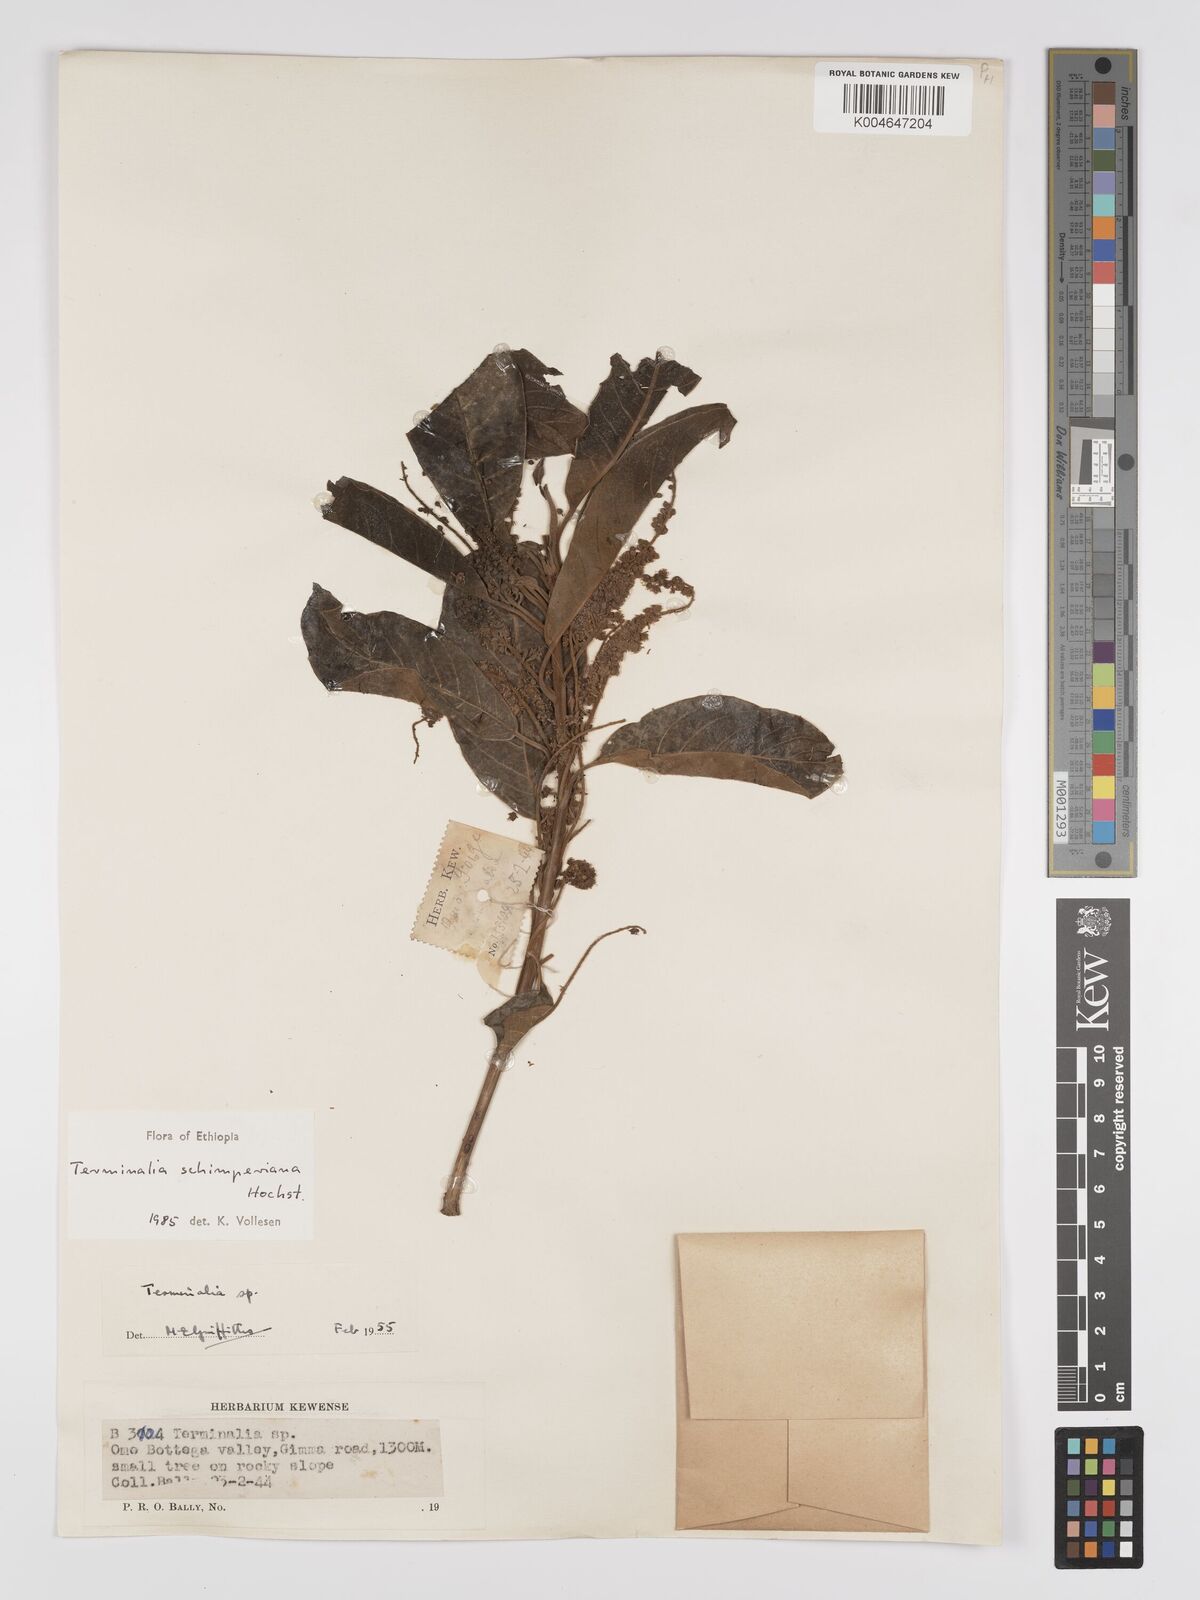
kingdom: Plantae
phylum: Tracheophyta
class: Magnoliopsida
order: Myrtales
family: Combretaceae
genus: Terminalia
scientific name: Terminalia schimperiana
